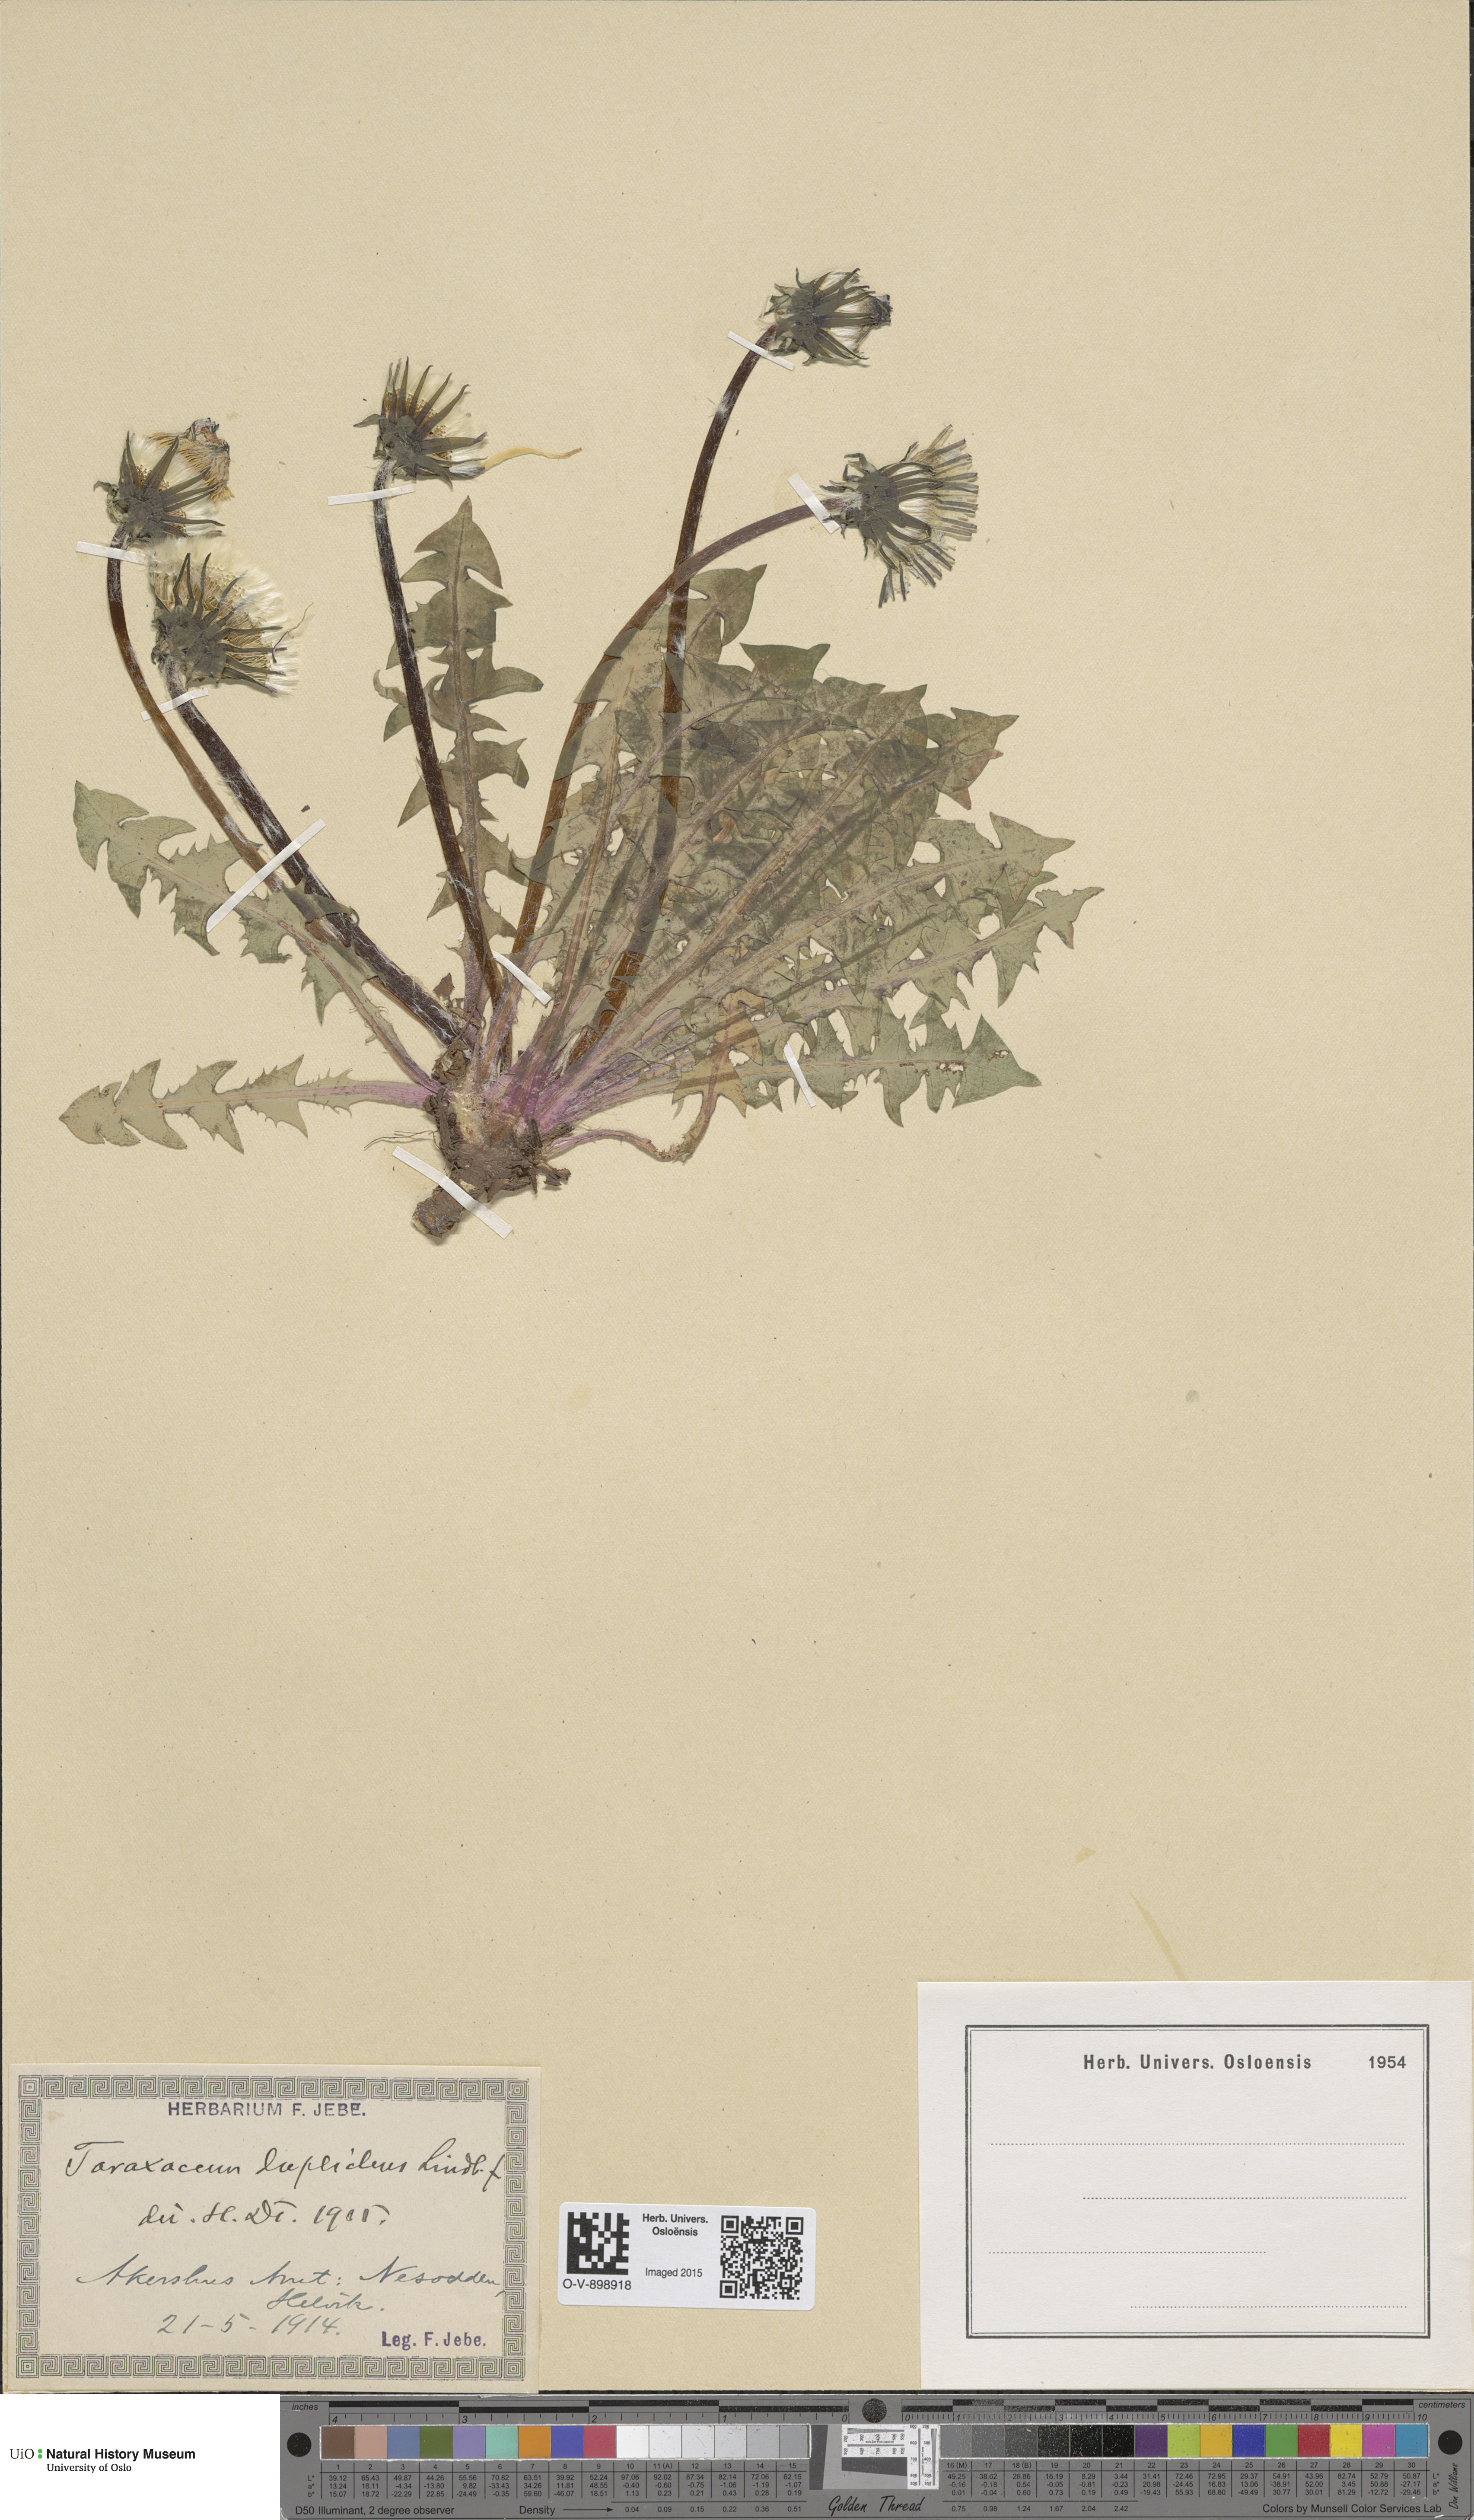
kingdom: Plantae
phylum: Tracheophyta
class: Magnoliopsida
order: Asterales
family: Asteraceae
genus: Taraxacum
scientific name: Taraxacum ostenfeldii
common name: Ostenfeld's dandelion
